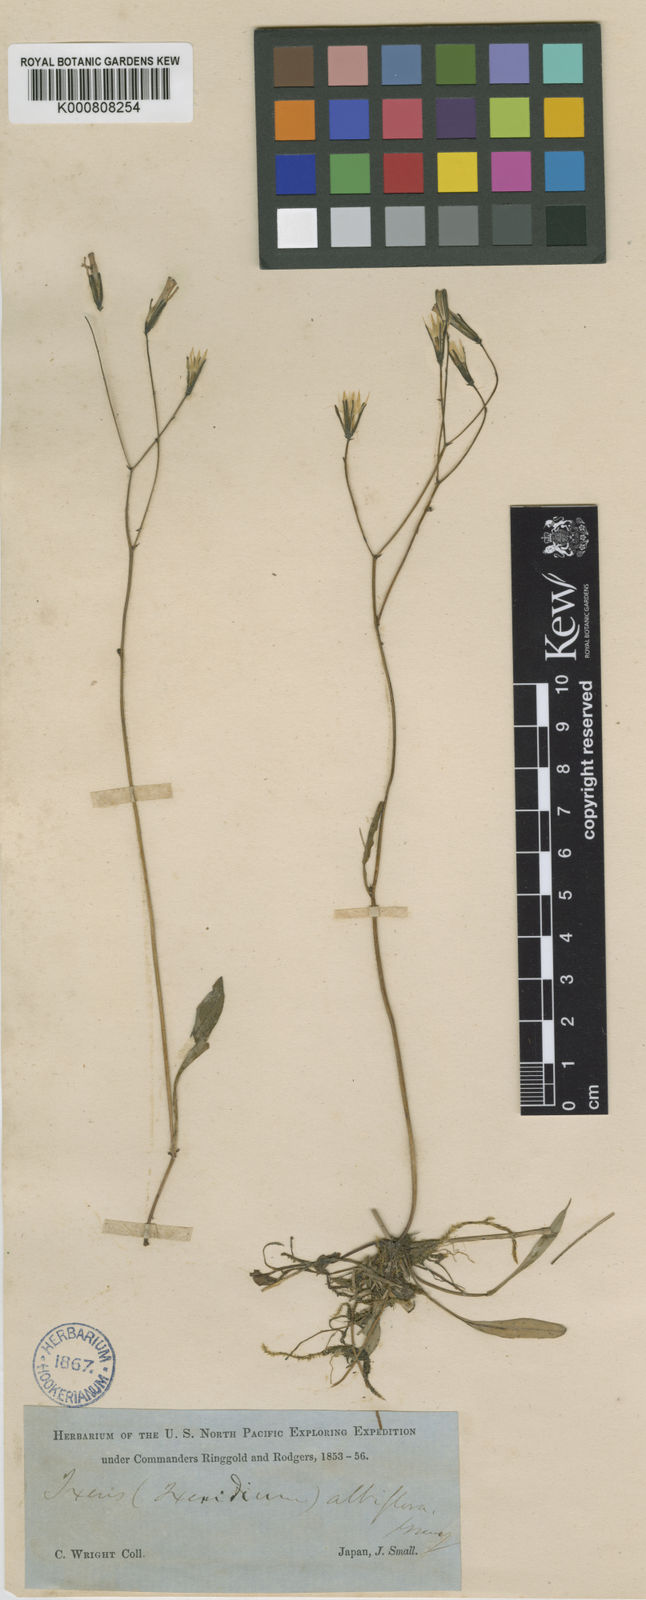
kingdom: Plantae
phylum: Tracheophyta
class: Magnoliopsida
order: Asterales
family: Asteraceae
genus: Ixeridium
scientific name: Ixeridium dentatum
